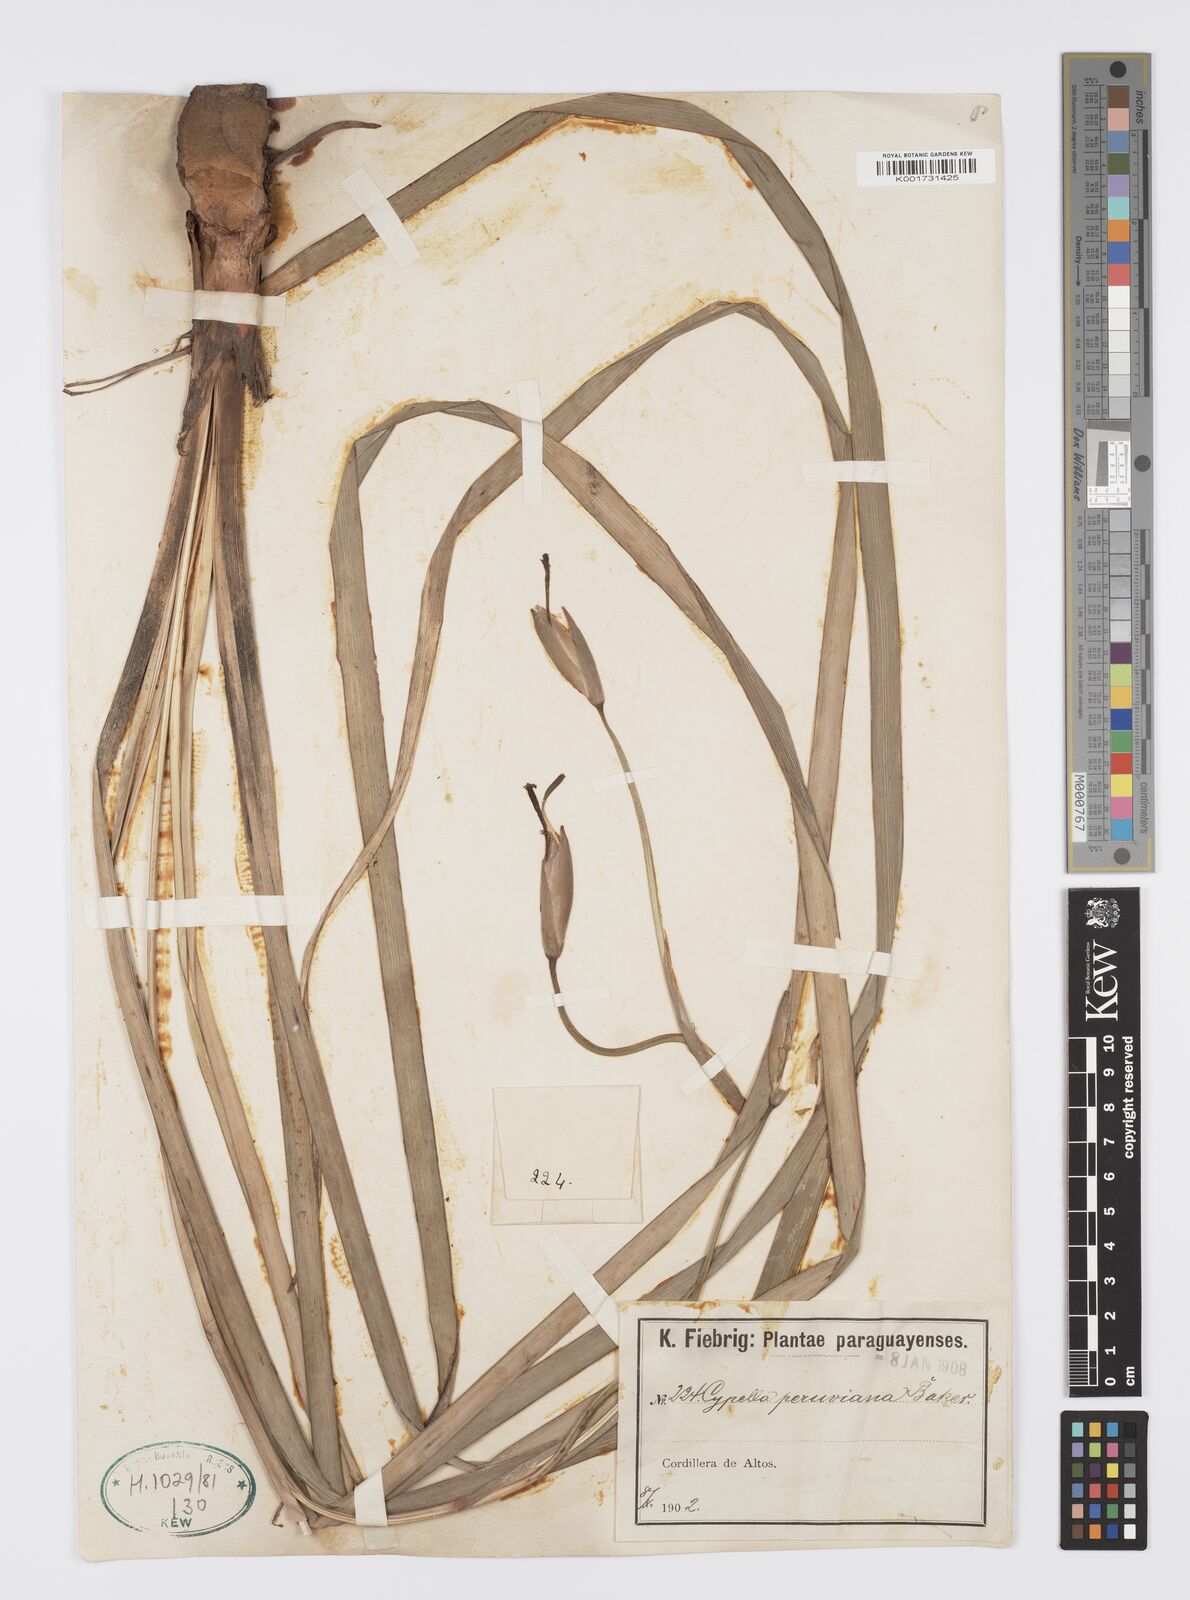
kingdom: Plantae
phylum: Tracheophyta
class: Liliopsida
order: Asparagales
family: Iridaceae
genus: Hesperoxiphion
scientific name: Hesperoxiphion peruvianum
